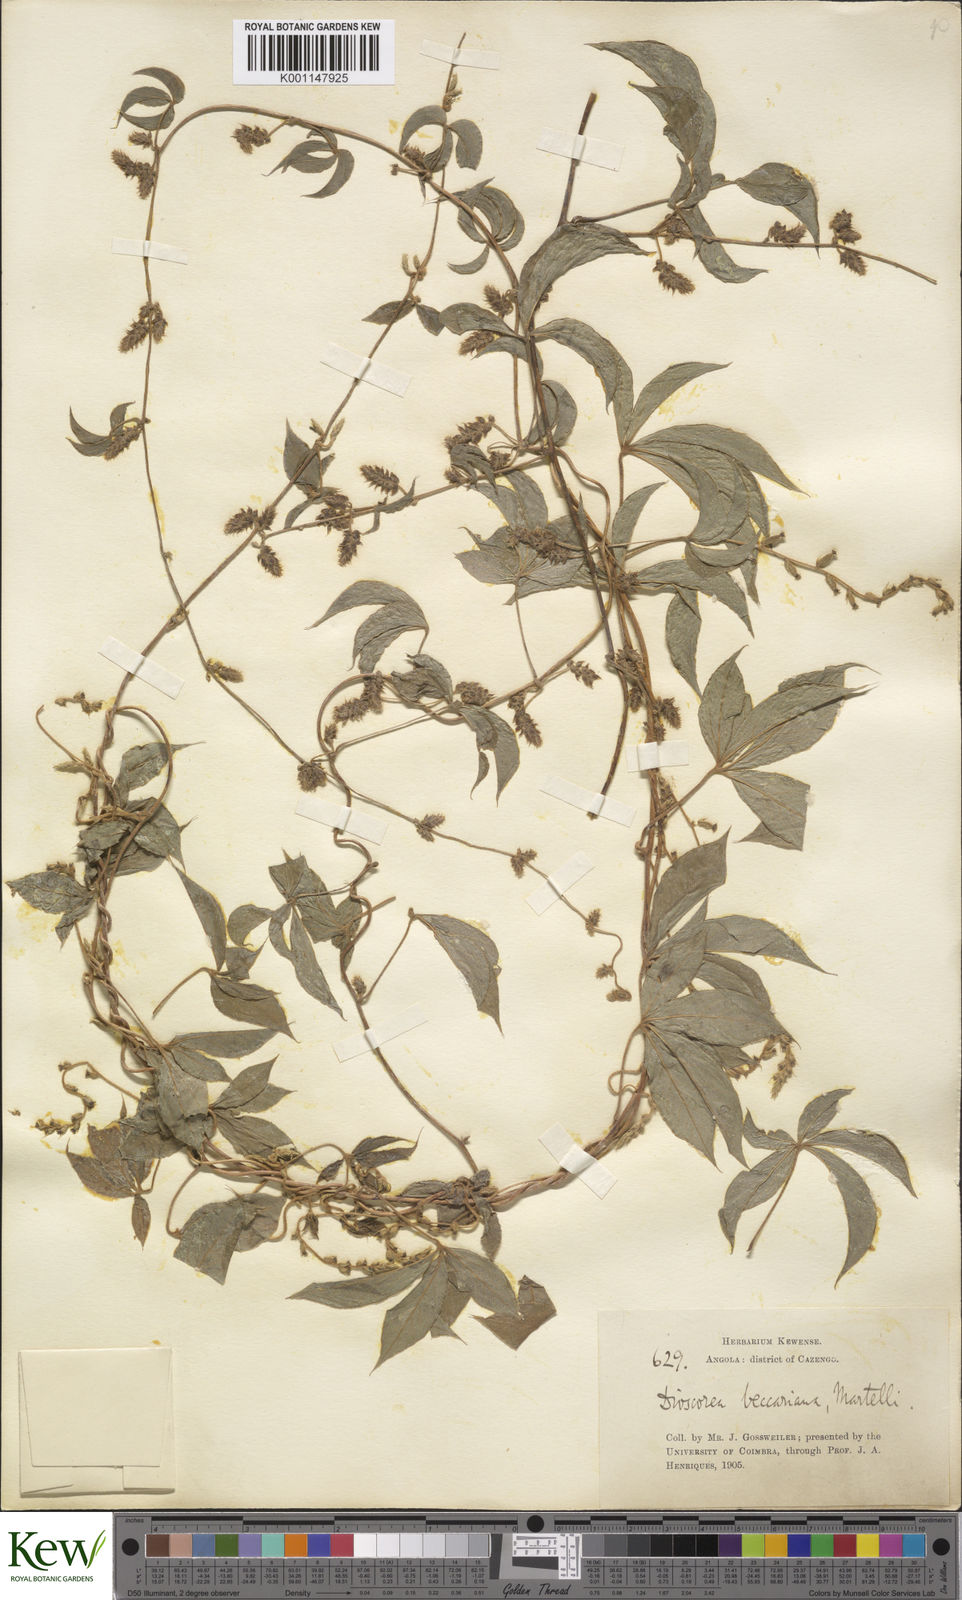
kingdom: Plantae
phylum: Tracheophyta
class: Liliopsida
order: Dioscoreales
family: Dioscoreaceae
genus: Dioscorea
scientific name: Dioscorea quartiniana
